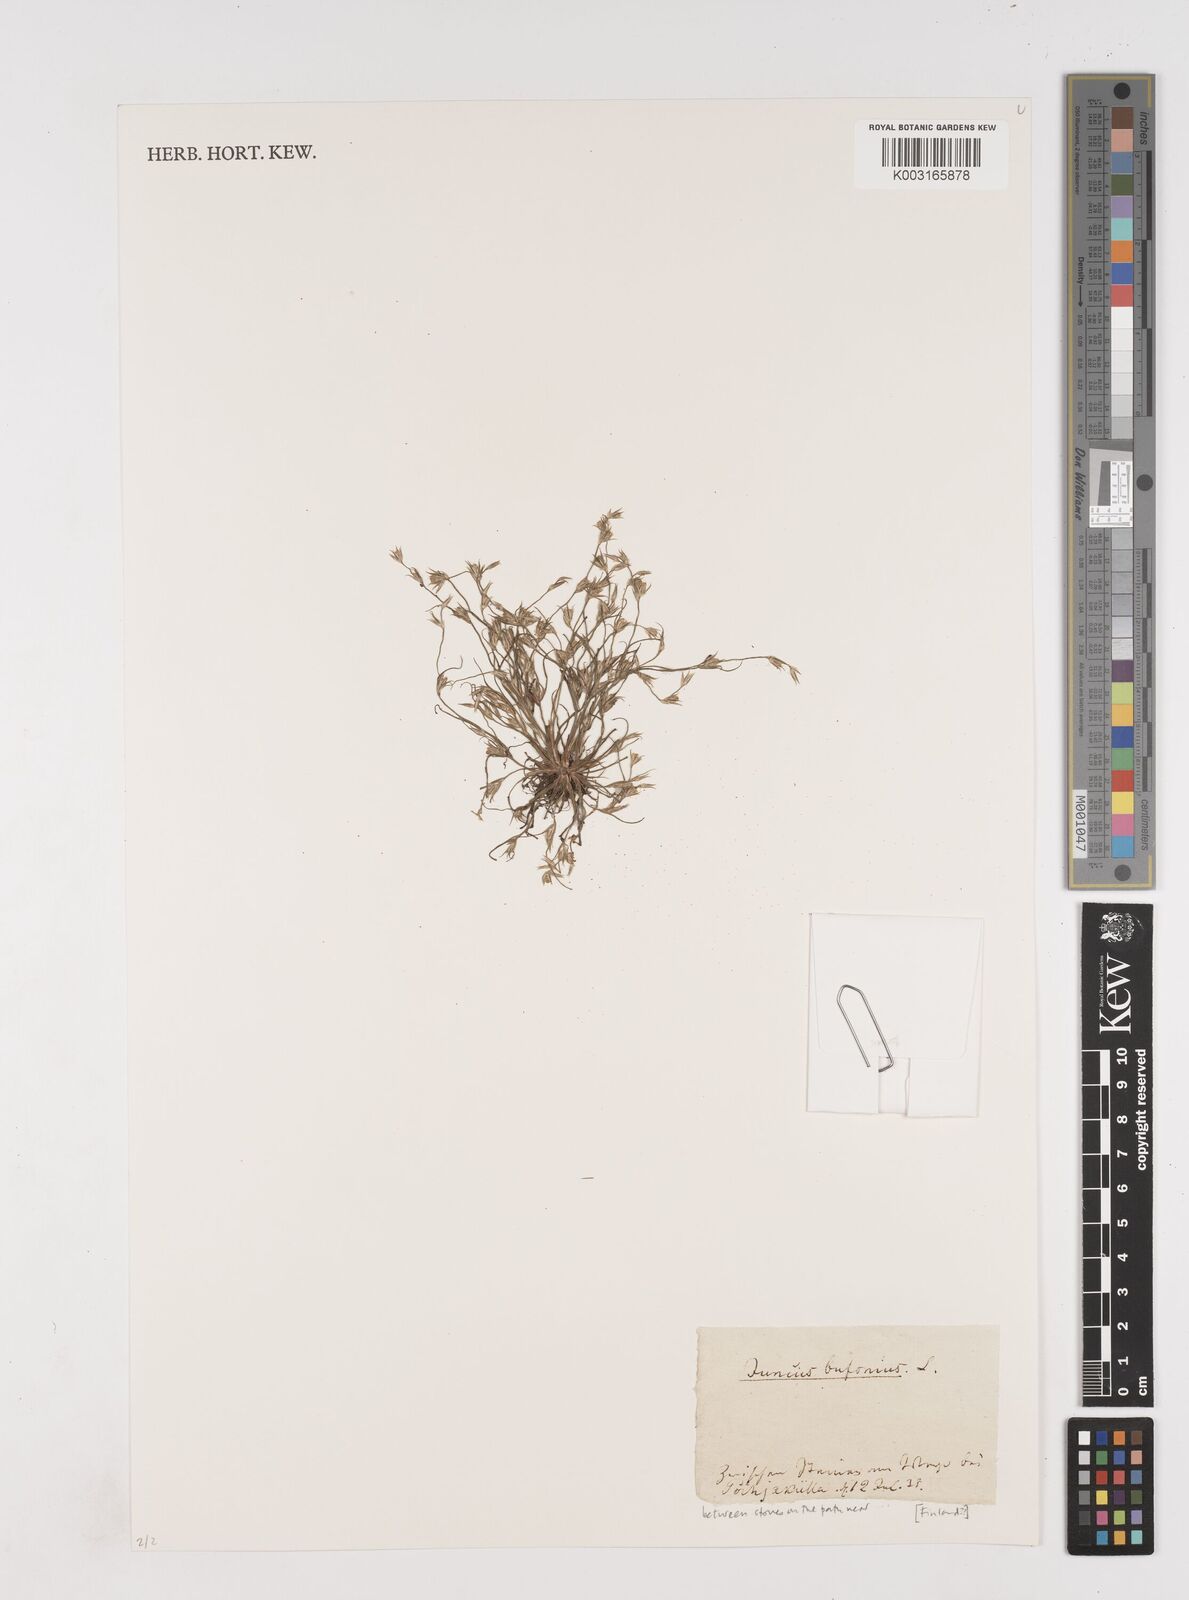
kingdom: Plantae
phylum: Tracheophyta
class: Liliopsida
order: Poales
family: Juncaceae
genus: Juncus
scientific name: Juncus bufonius
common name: Toad rush
